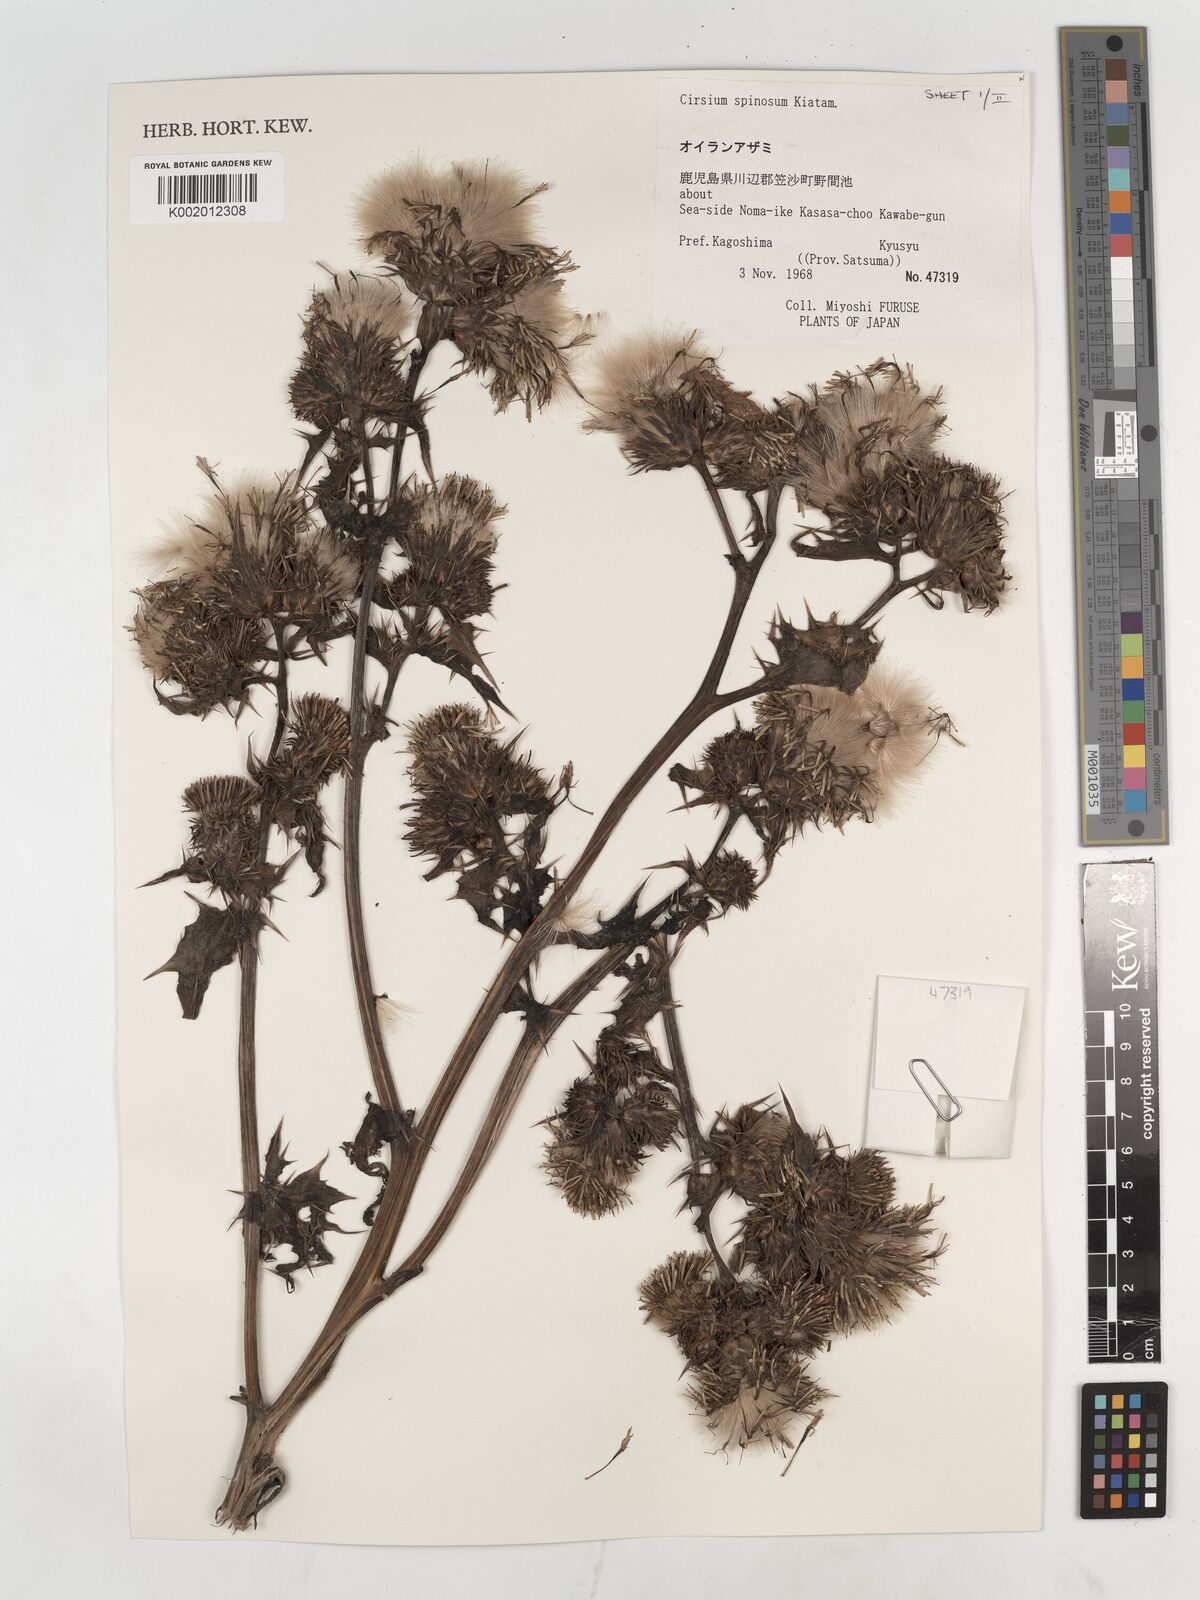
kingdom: Plantae
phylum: Tracheophyta
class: Magnoliopsida
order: Asterales
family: Asteraceae
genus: Cirsium
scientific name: Cirsium spinosum
